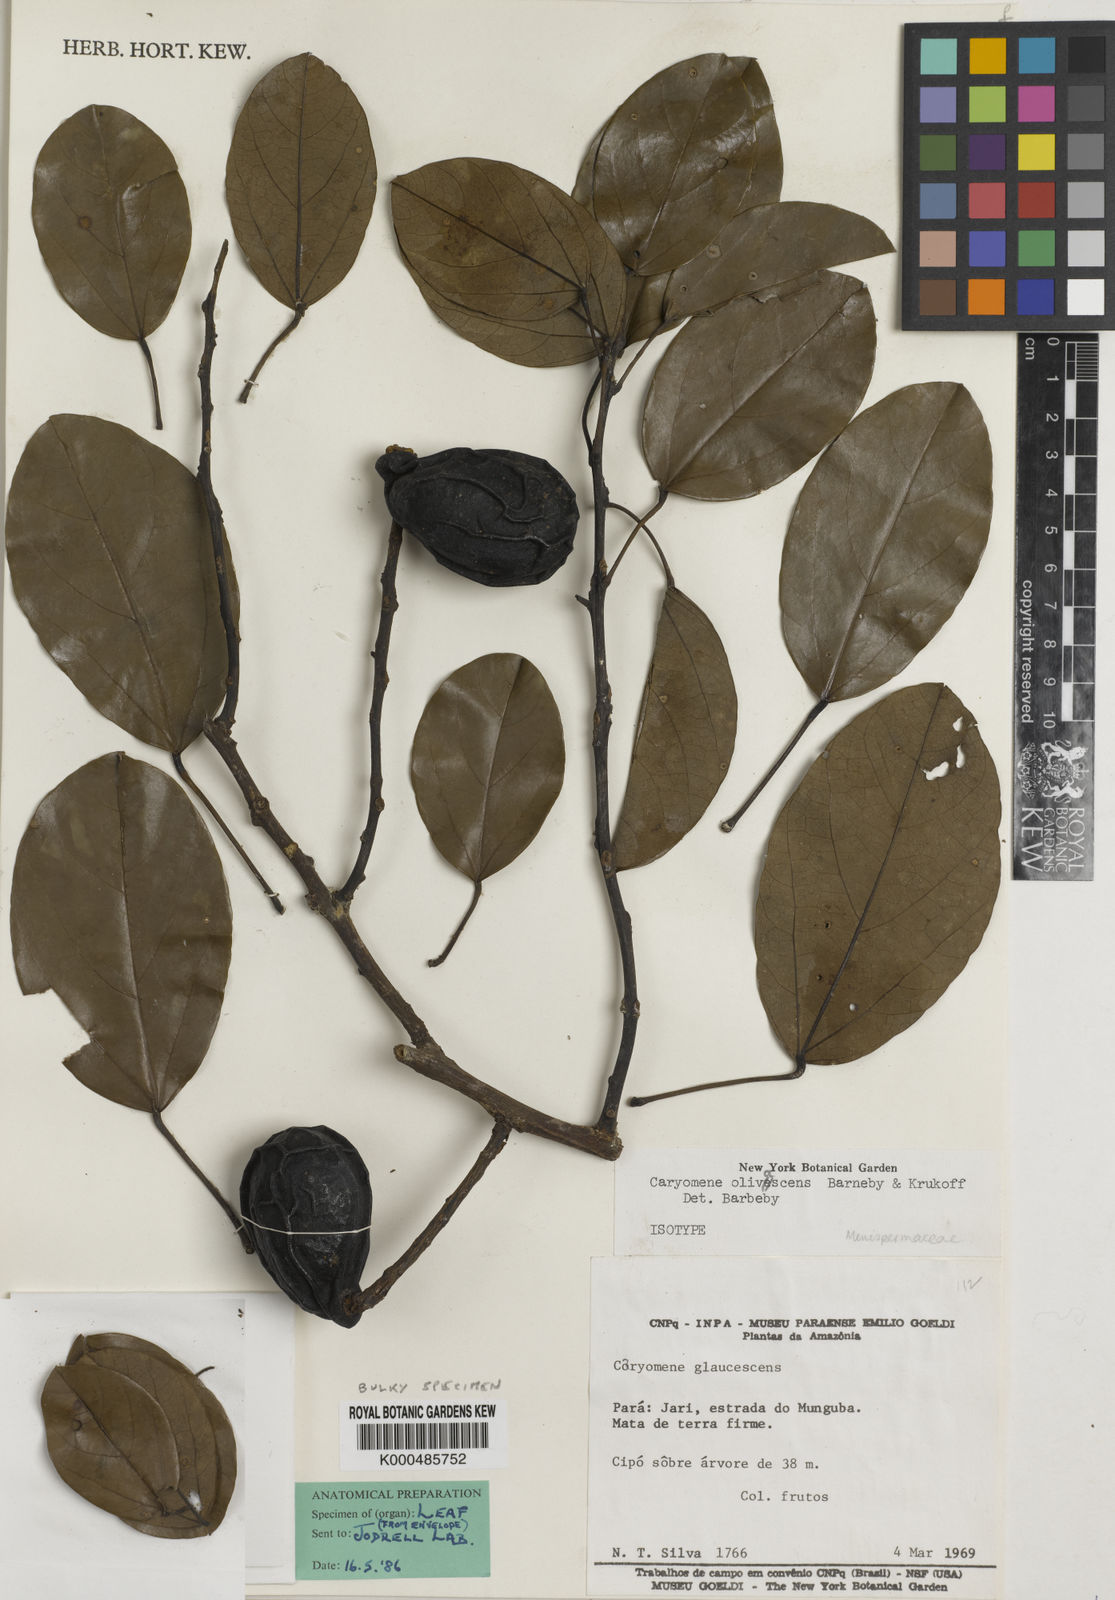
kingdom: Plantae
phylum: Tracheophyta
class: Magnoliopsida
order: Ranunculales
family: Menispermaceae
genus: Caryomene
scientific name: Caryomene olivascens
